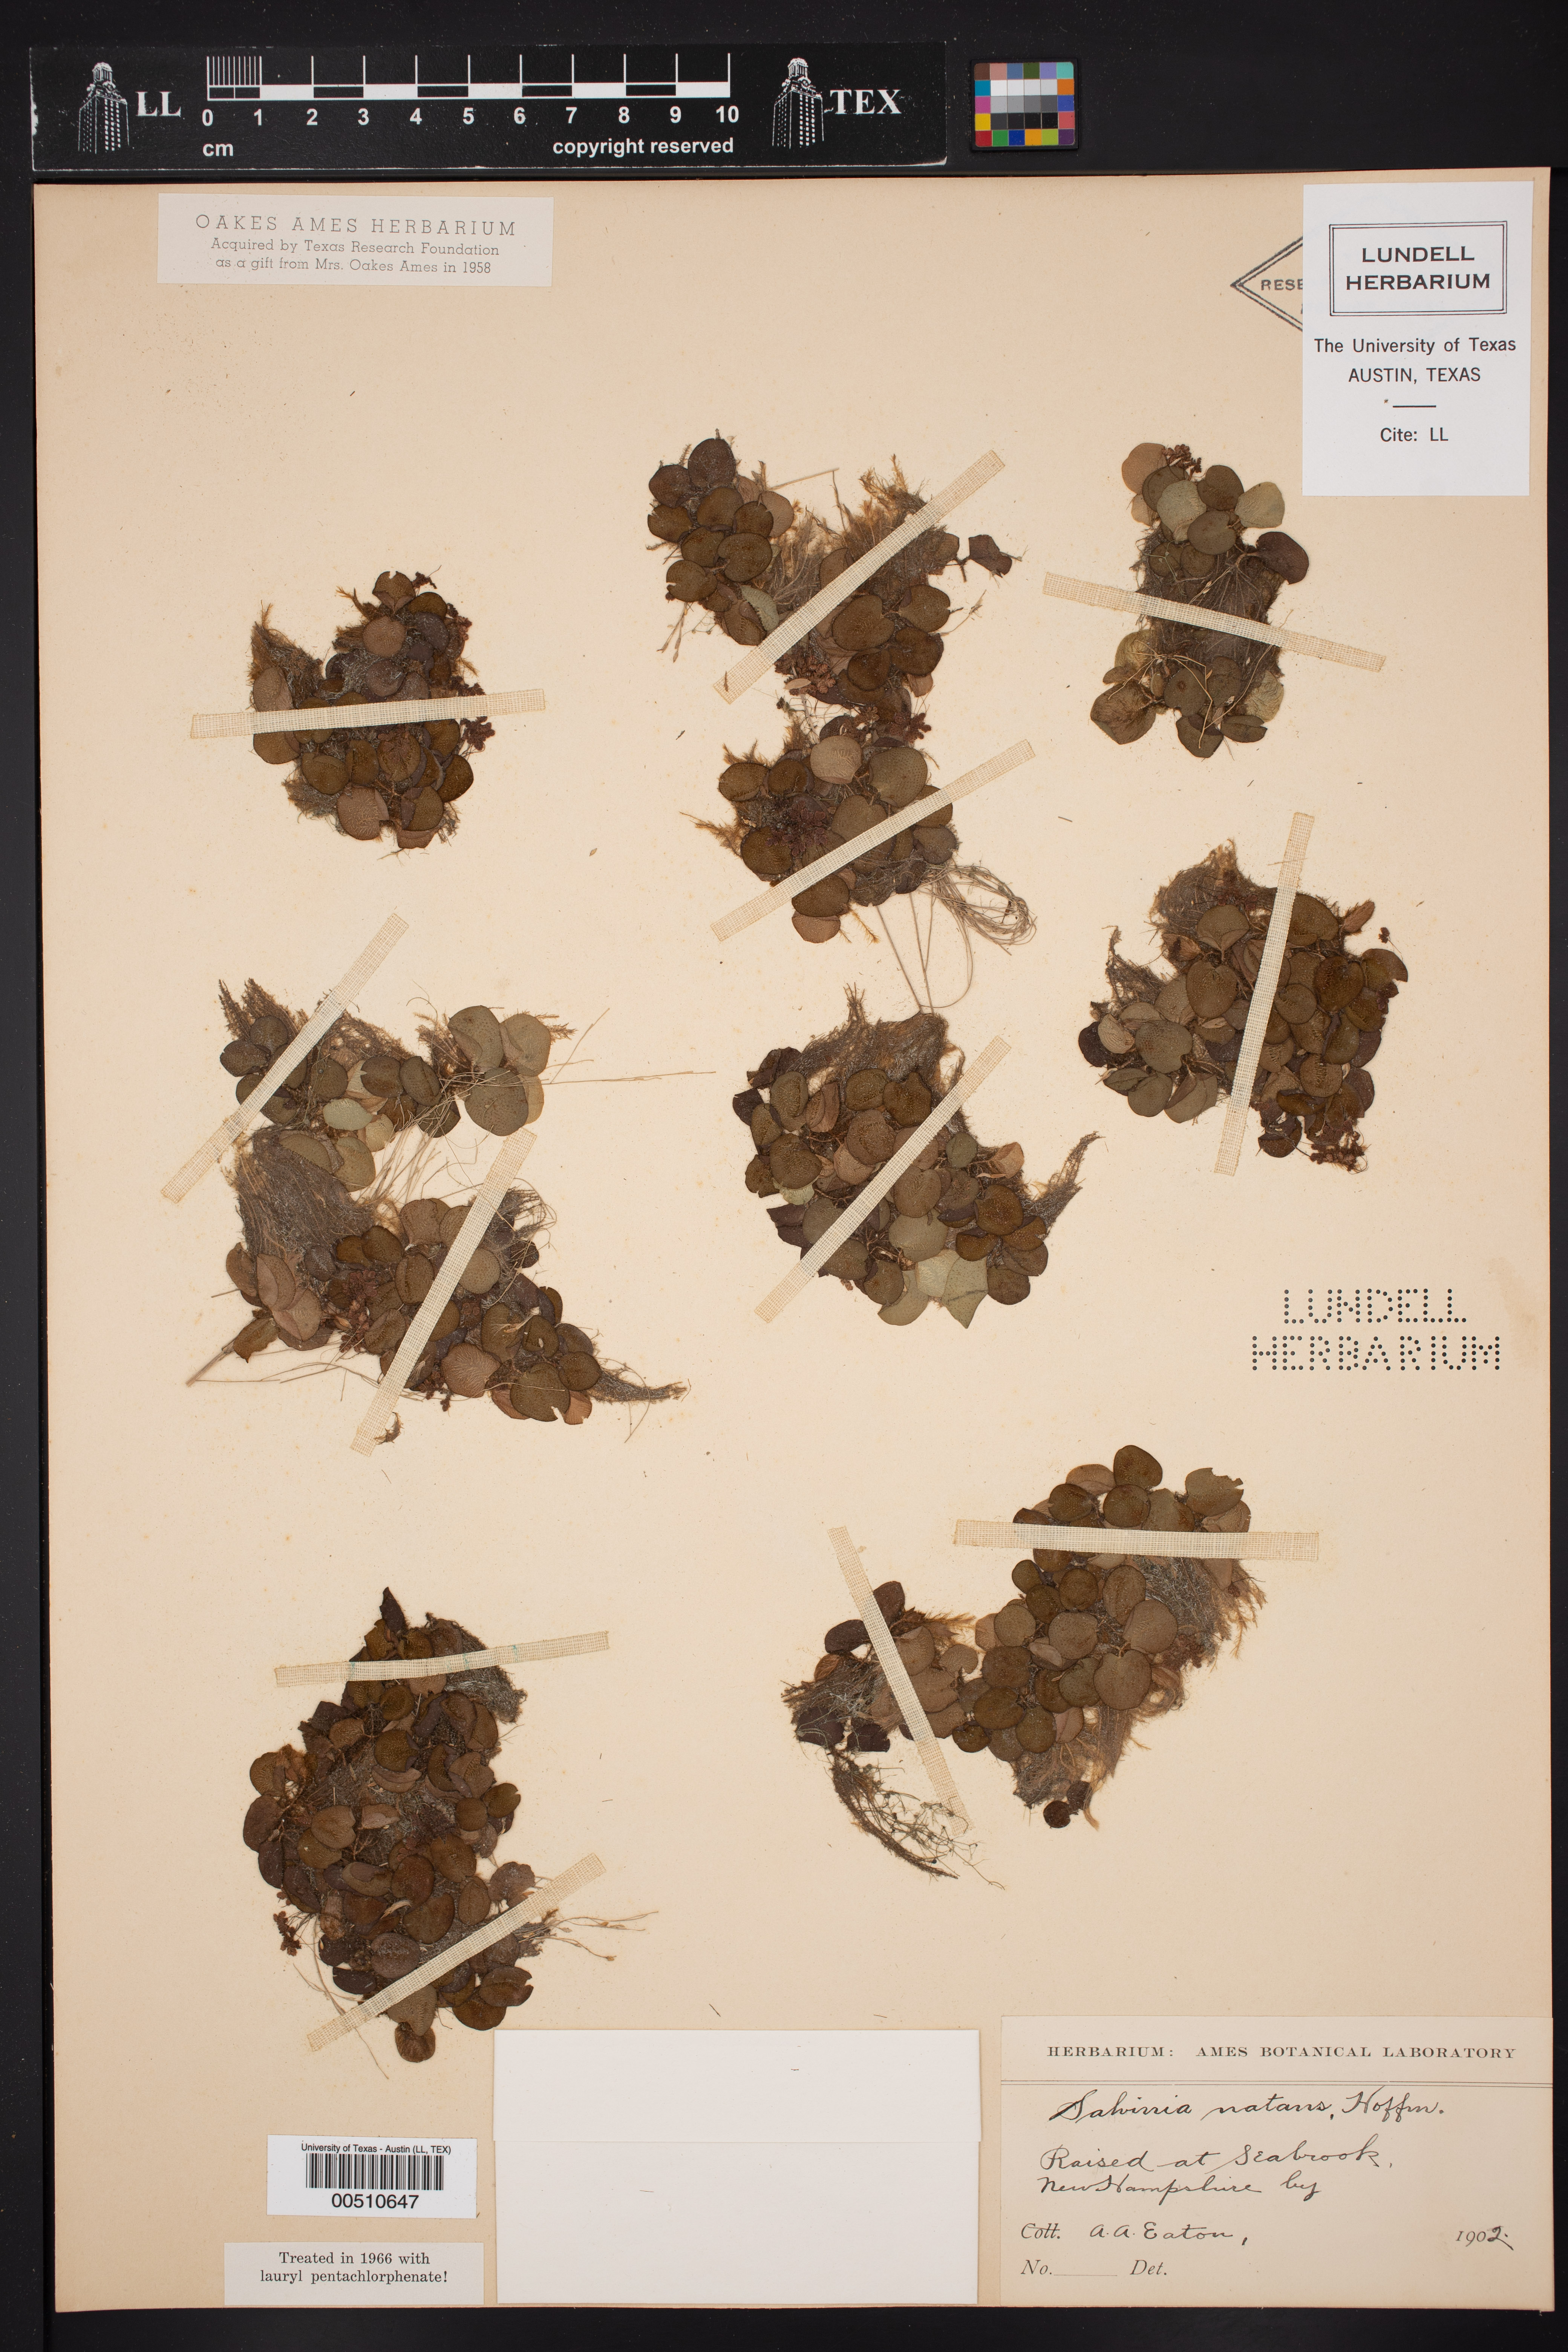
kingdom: Plantae
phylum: Tracheophyta
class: Polypodiopsida
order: Salviniales
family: Salviniaceae
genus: Salvinia
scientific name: Salvinia natans
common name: Floating fern
